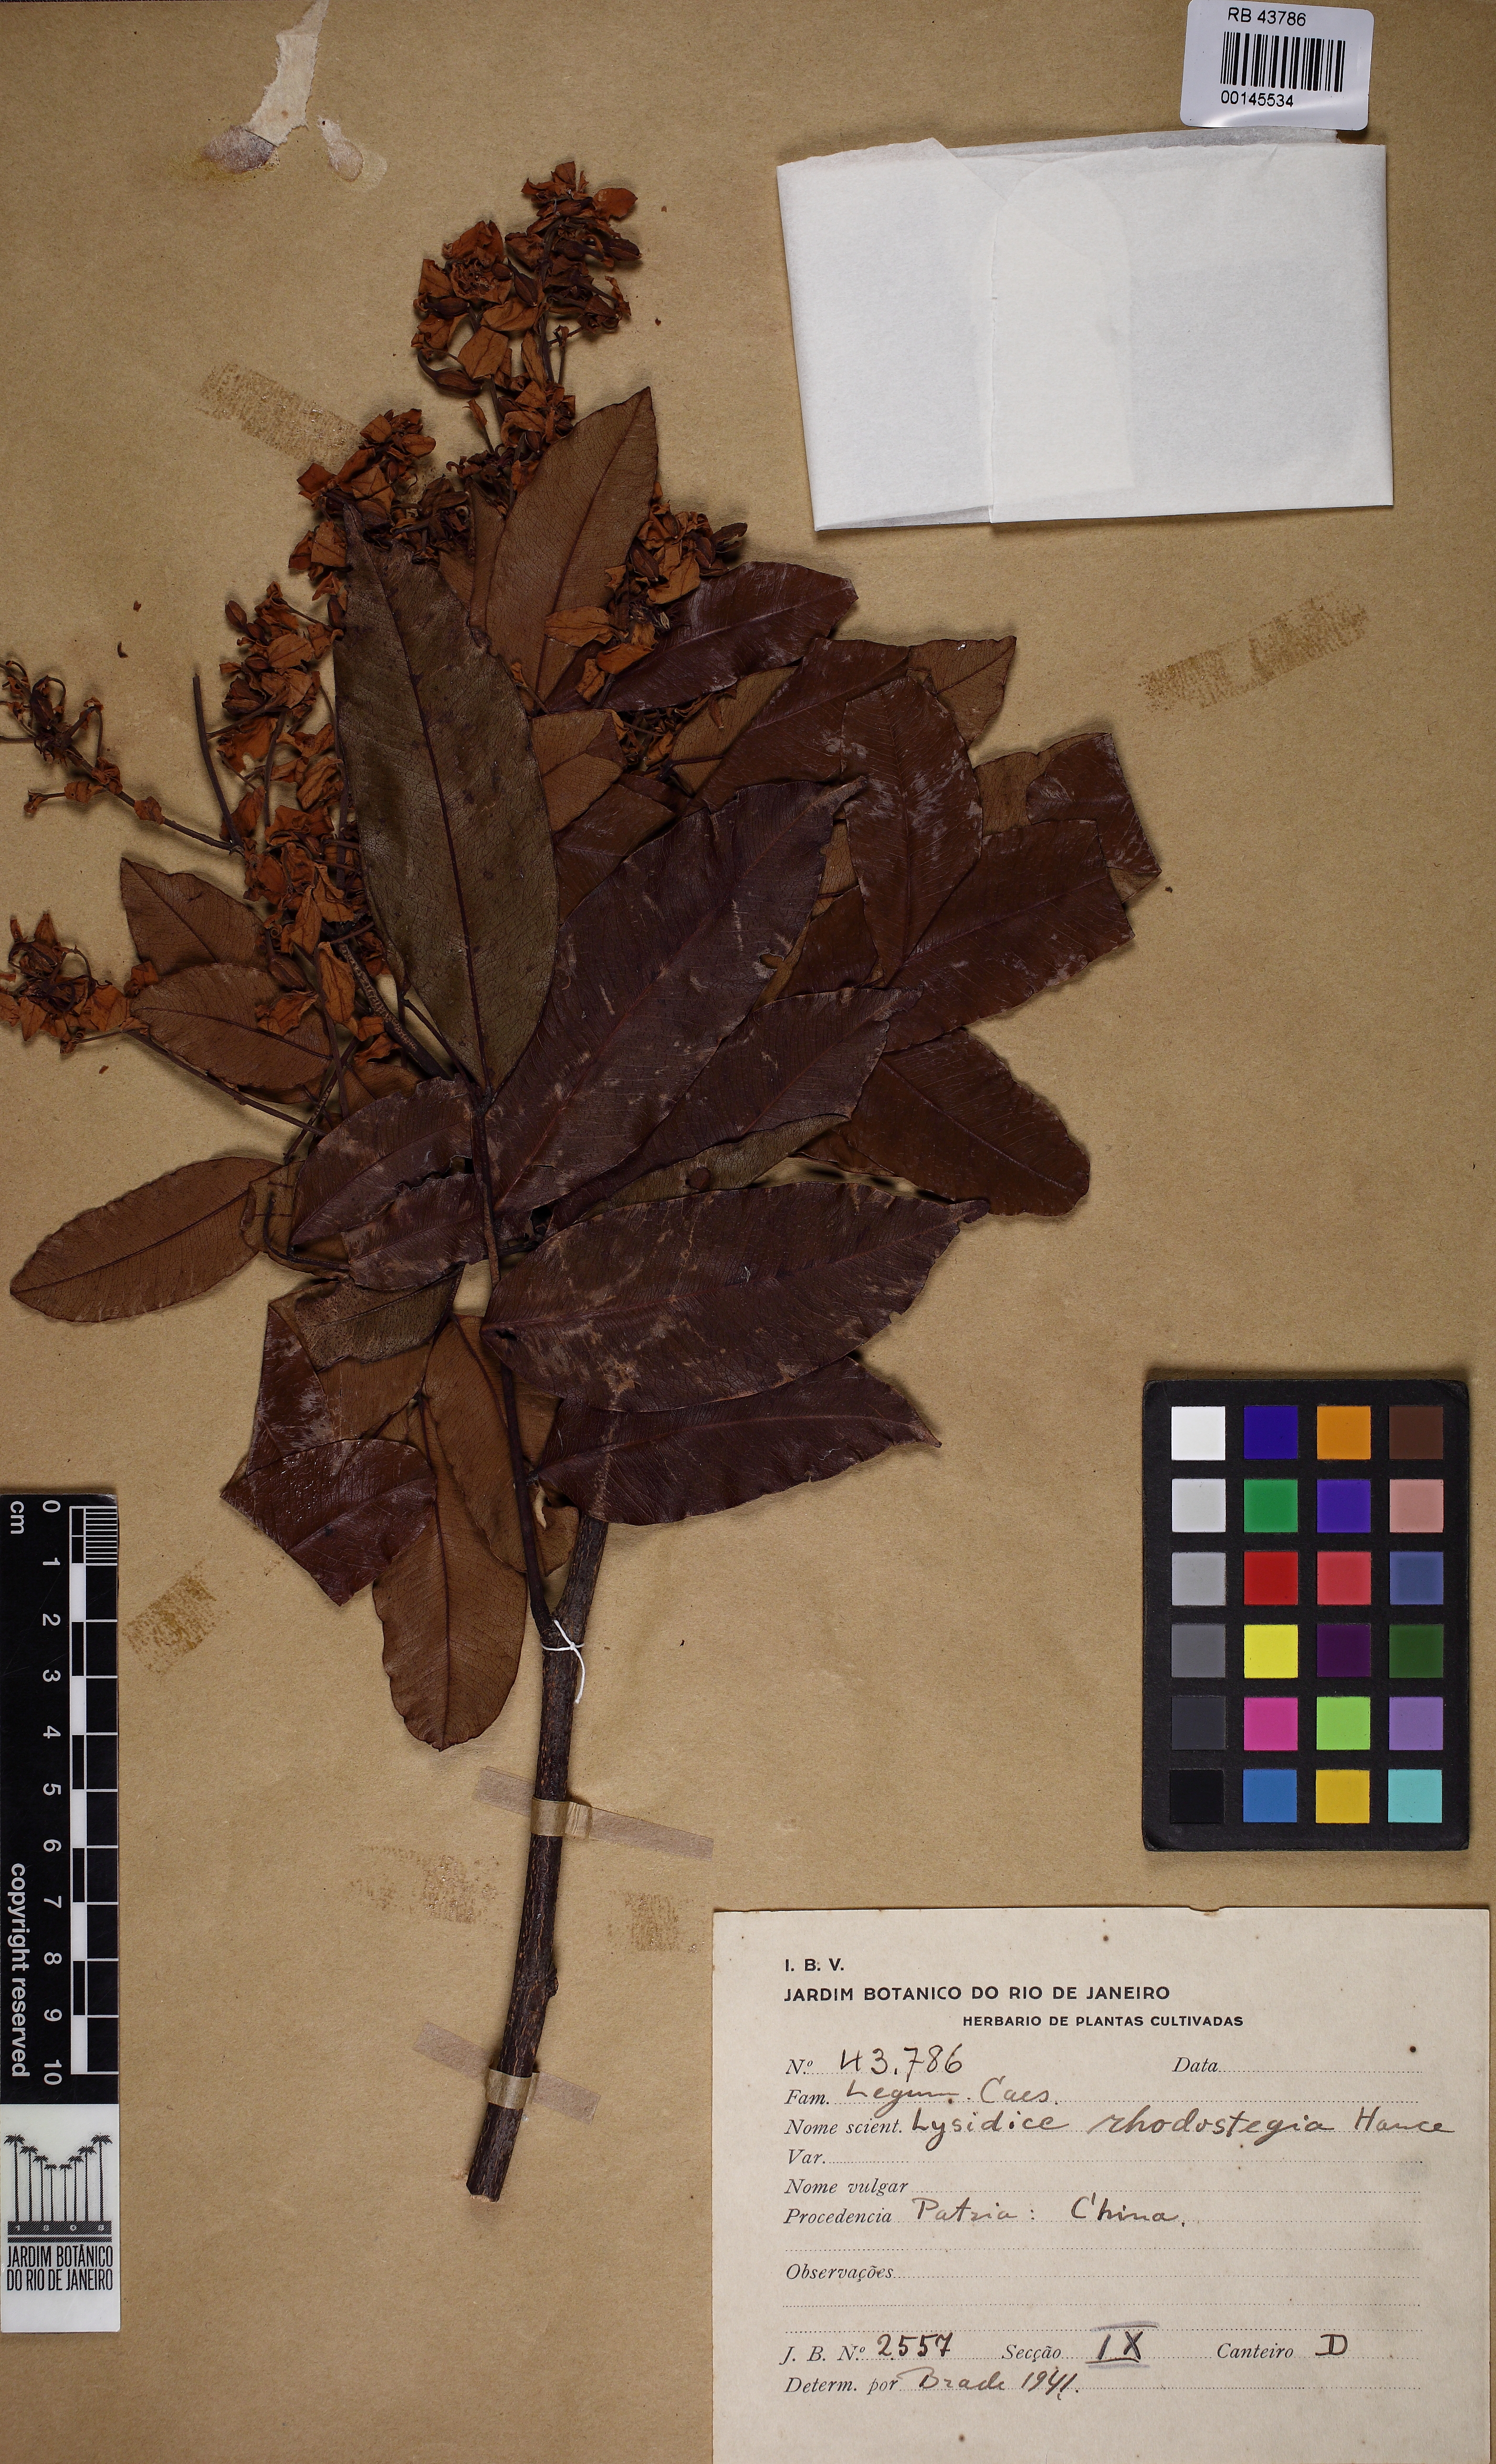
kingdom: Plantae
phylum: Tracheophyta
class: Magnoliopsida
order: Fabales
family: Fabaceae
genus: Lysidice
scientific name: Lysidice rhodostegia
